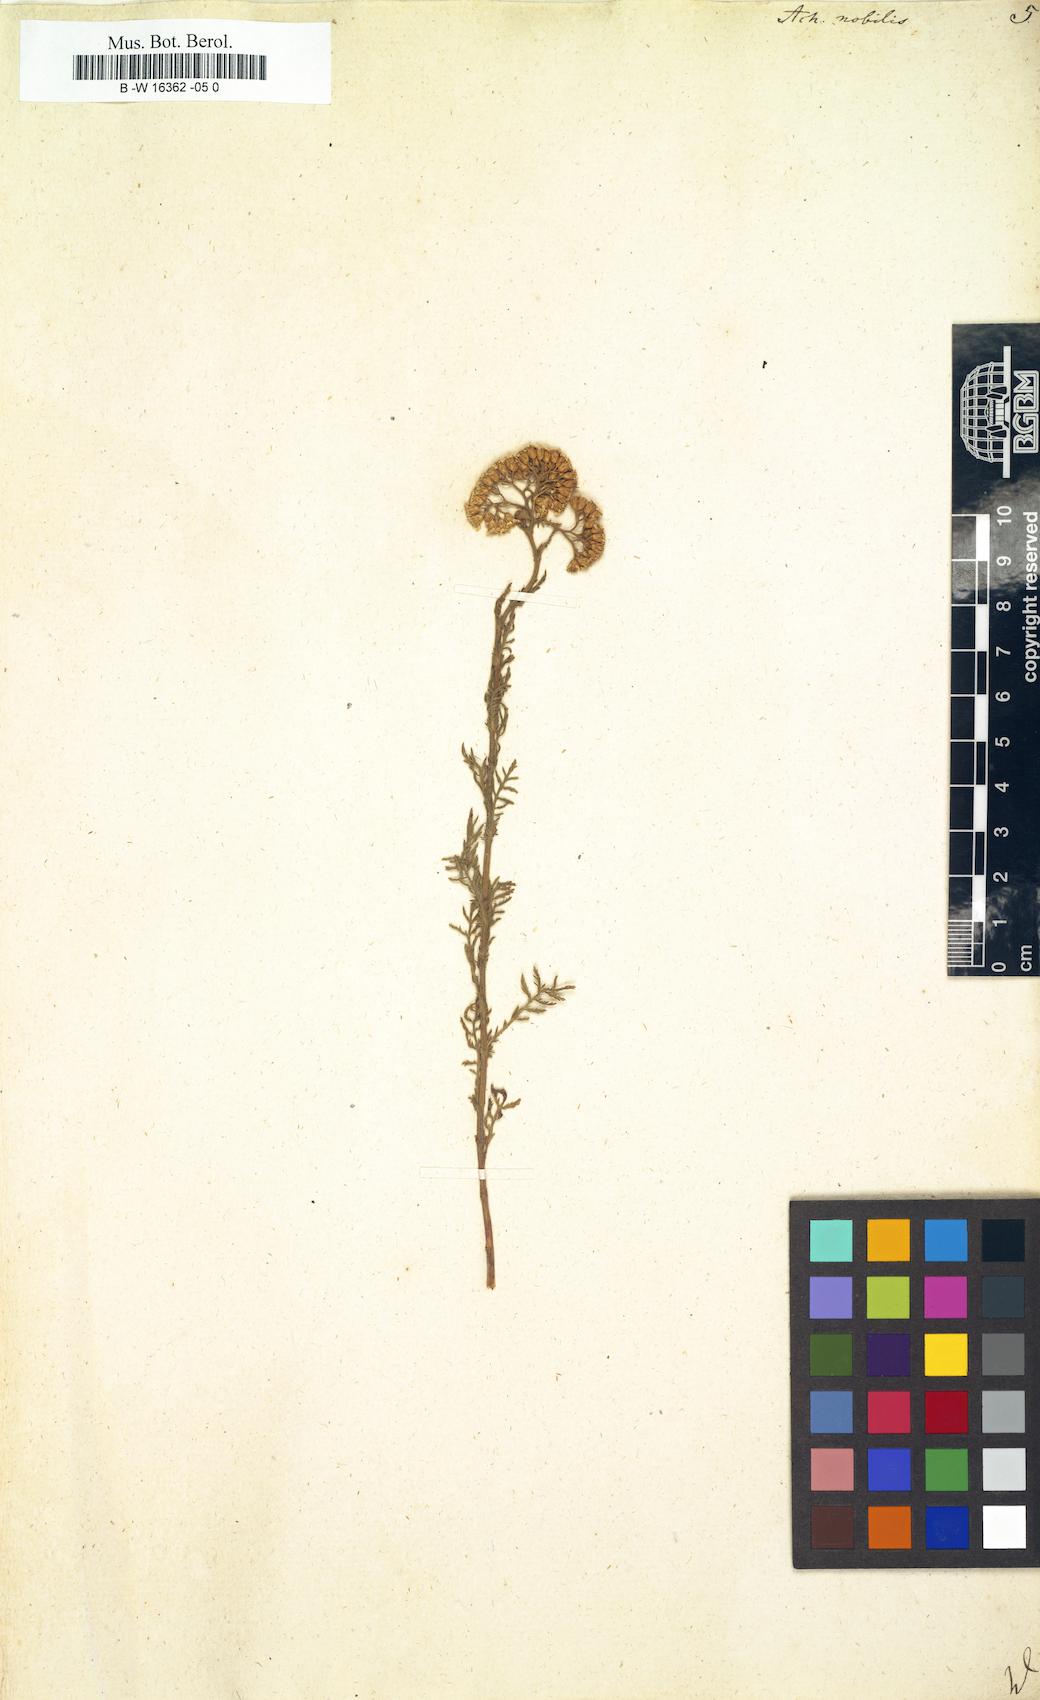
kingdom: Plantae
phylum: Tracheophyta
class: Magnoliopsida
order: Asterales
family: Asteraceae
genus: Achillea
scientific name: Achillea nobilis
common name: Noble yarrow
